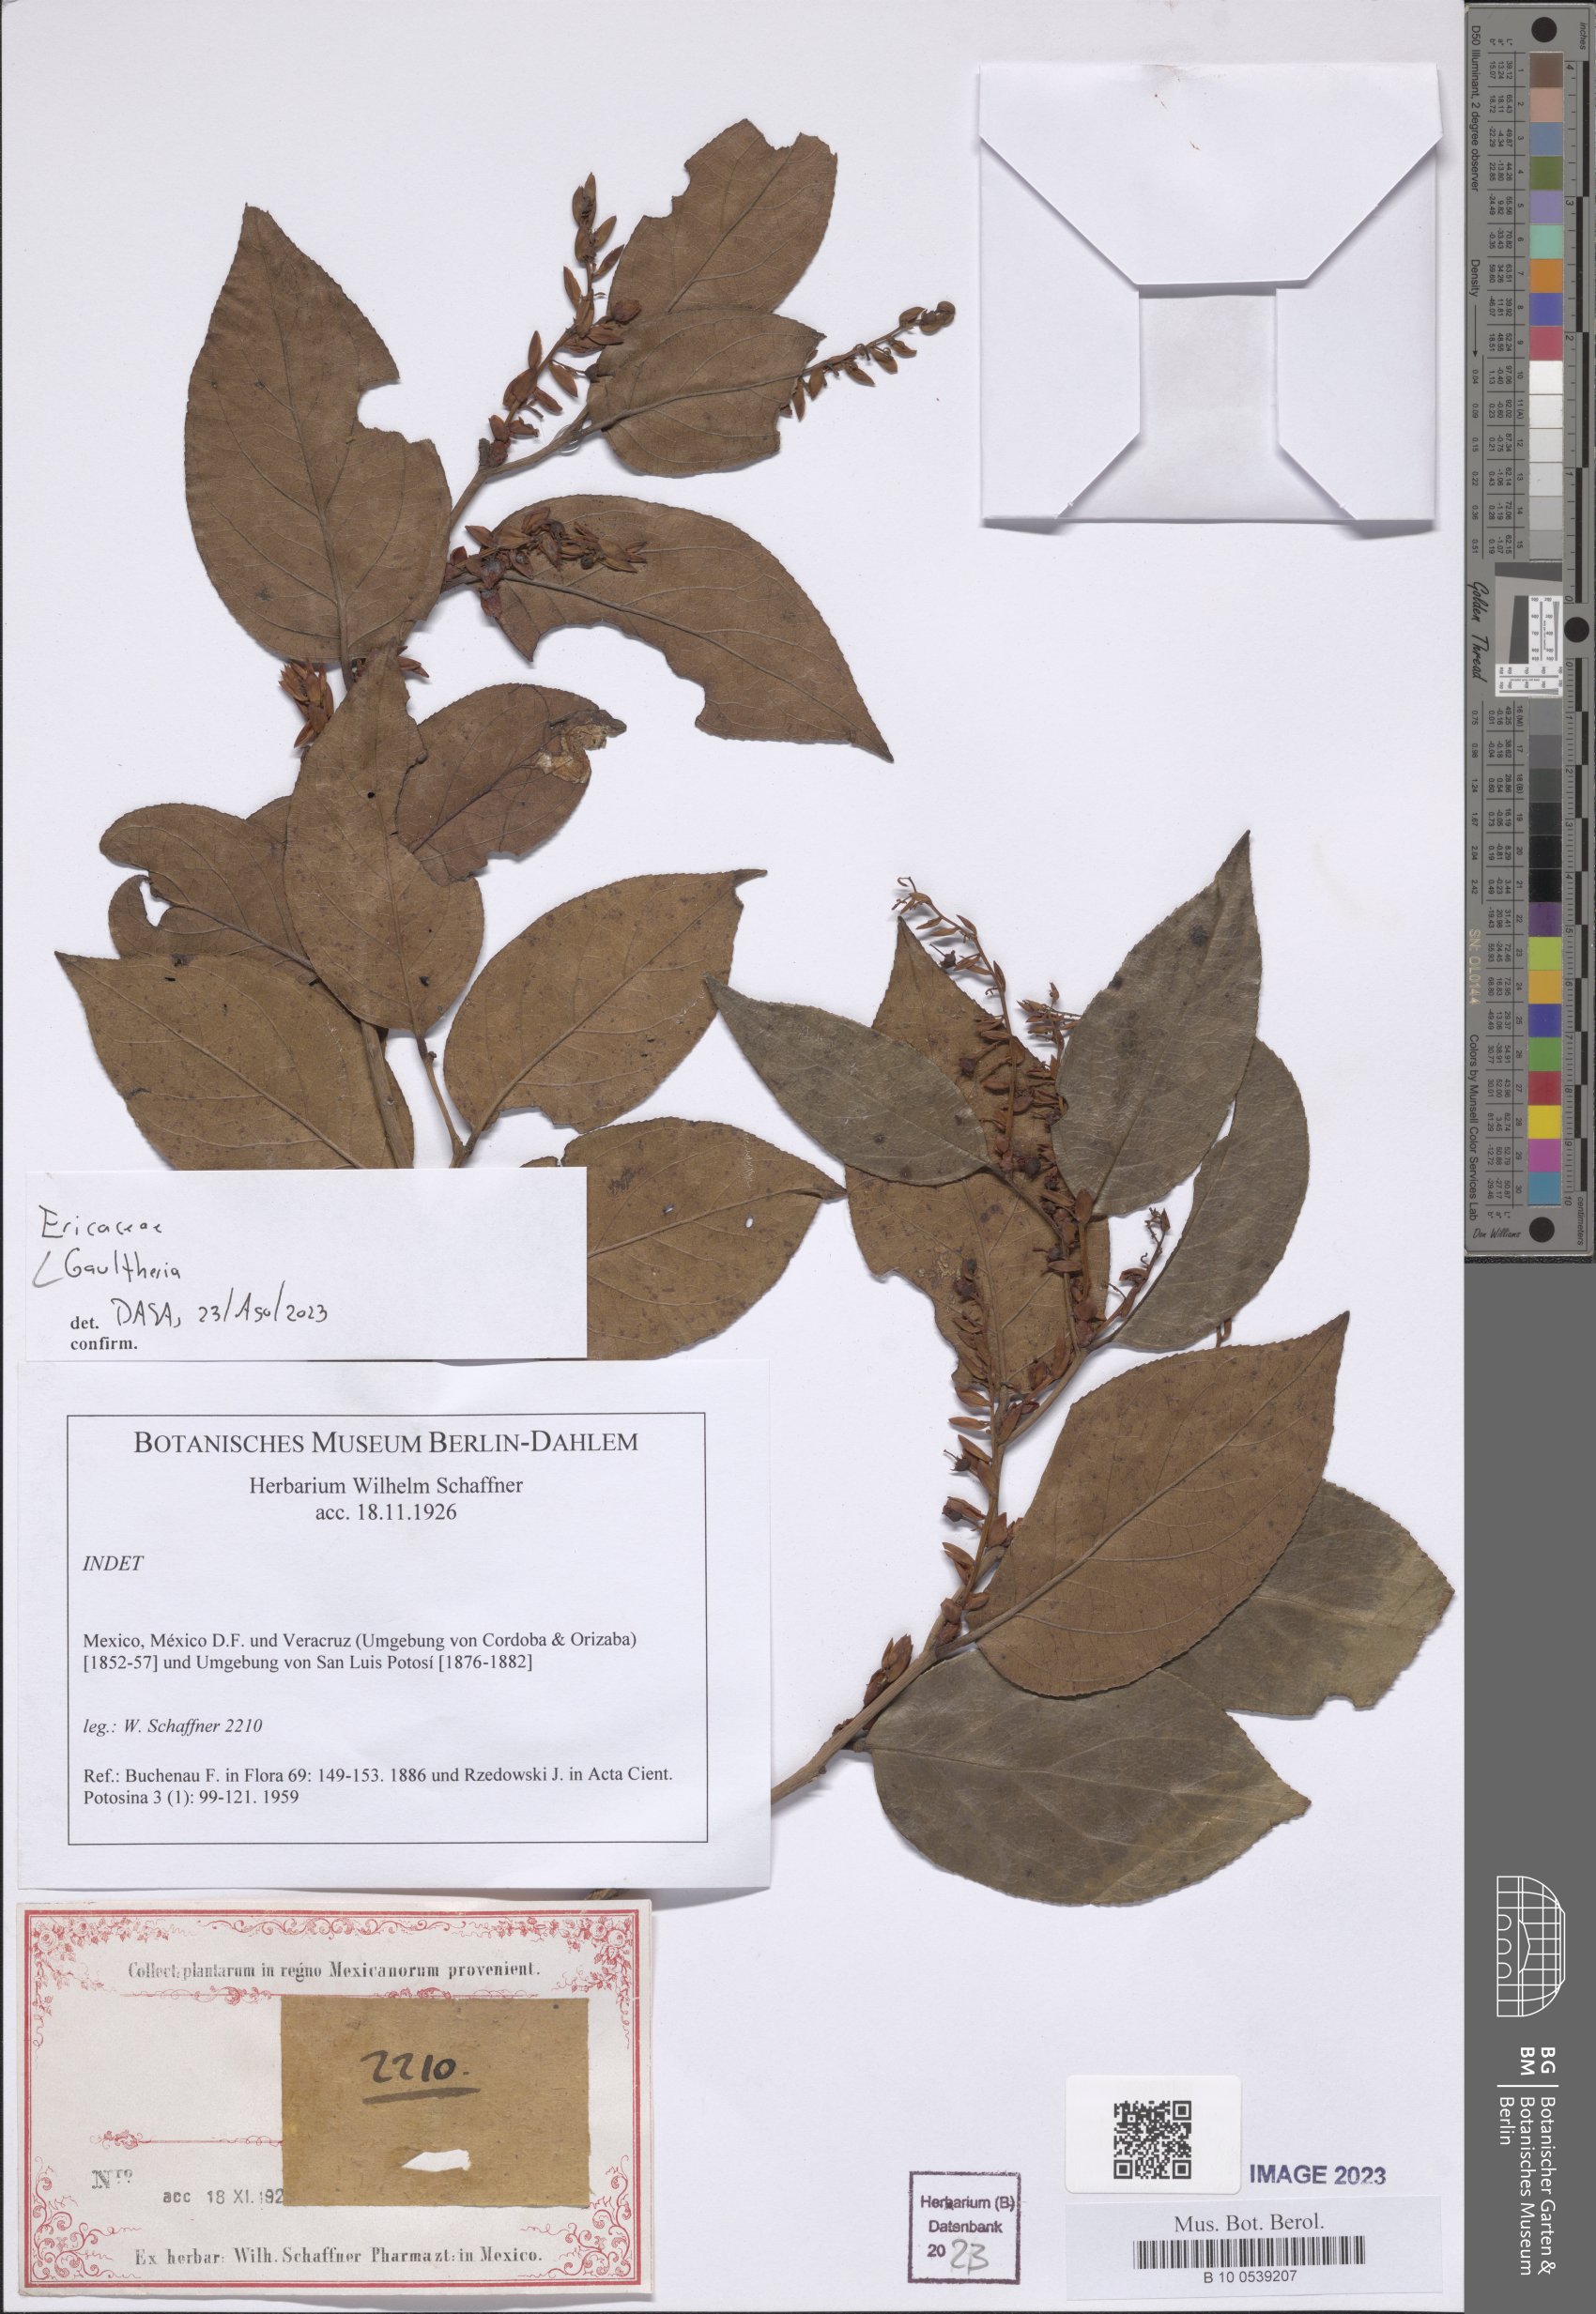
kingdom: Plantae
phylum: Tracheophyta
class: Magnoliopsida
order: Ericales
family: Ericaceae
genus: Gaultheria
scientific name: Gaultheria
